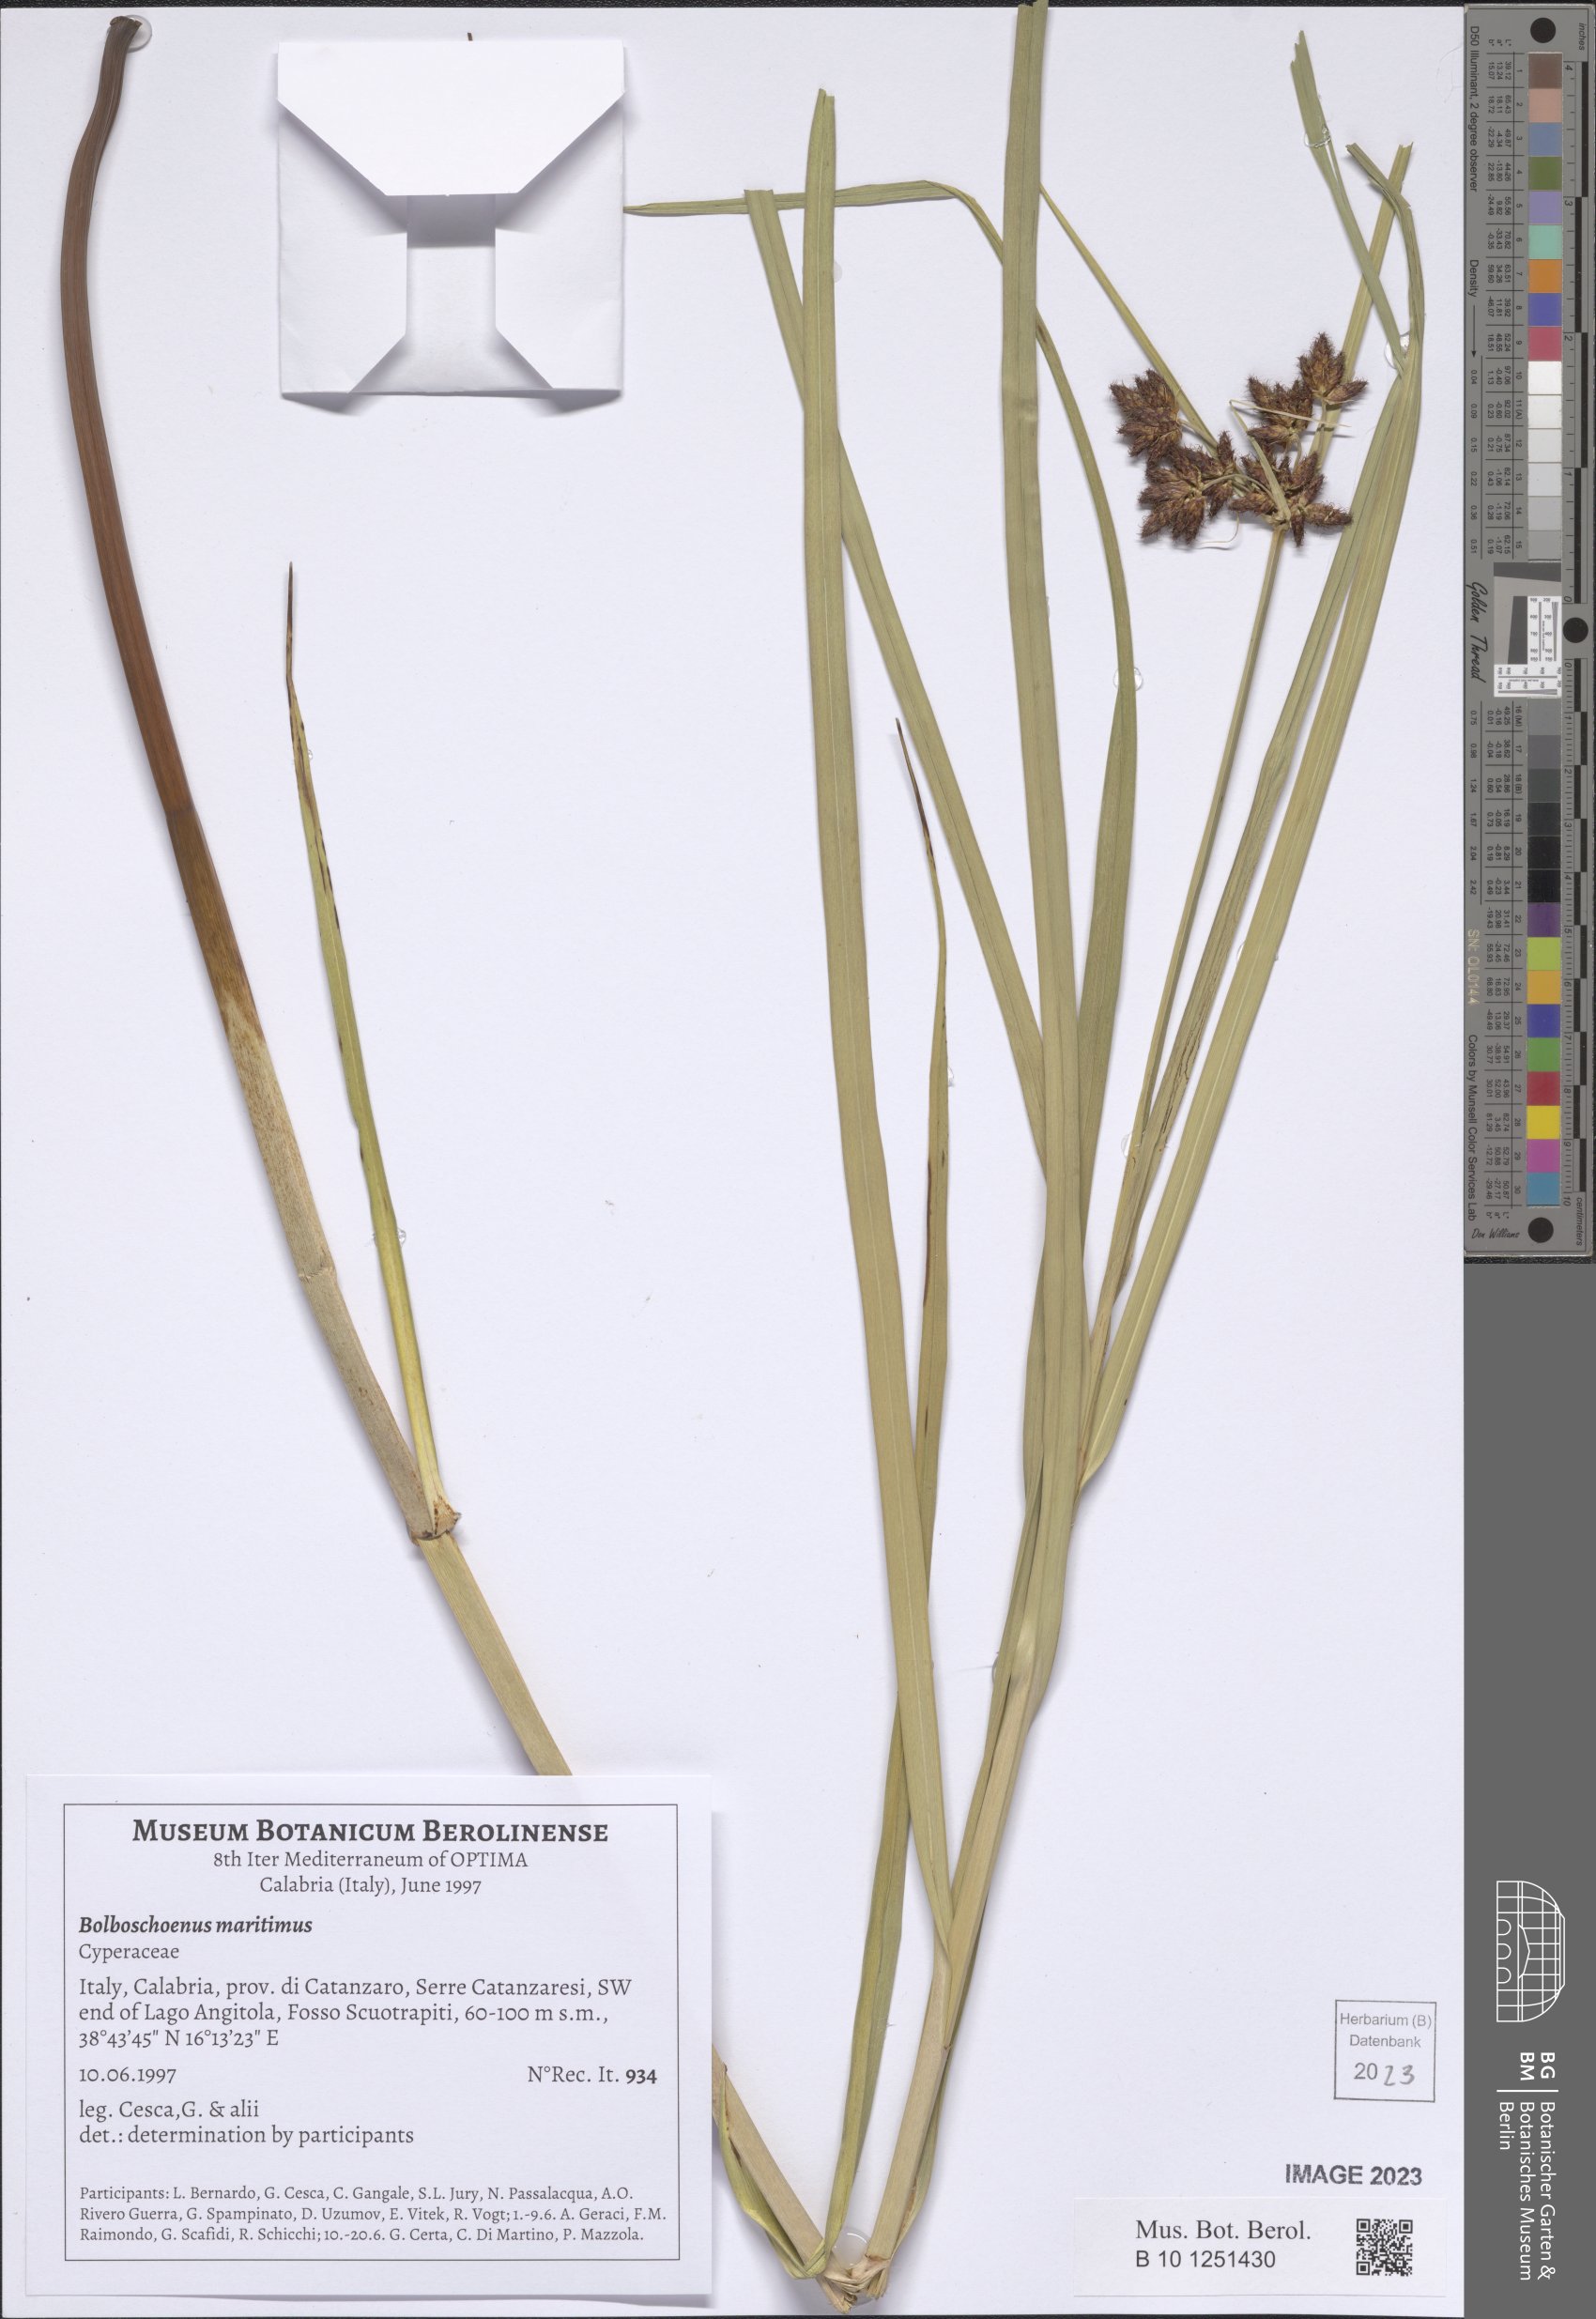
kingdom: Plantae
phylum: Tracheophyta
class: Liliopsida
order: Poales
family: Cyperaceae
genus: Bolboschoenus
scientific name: Bolboschoenus maritimus
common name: Sea club-rush
